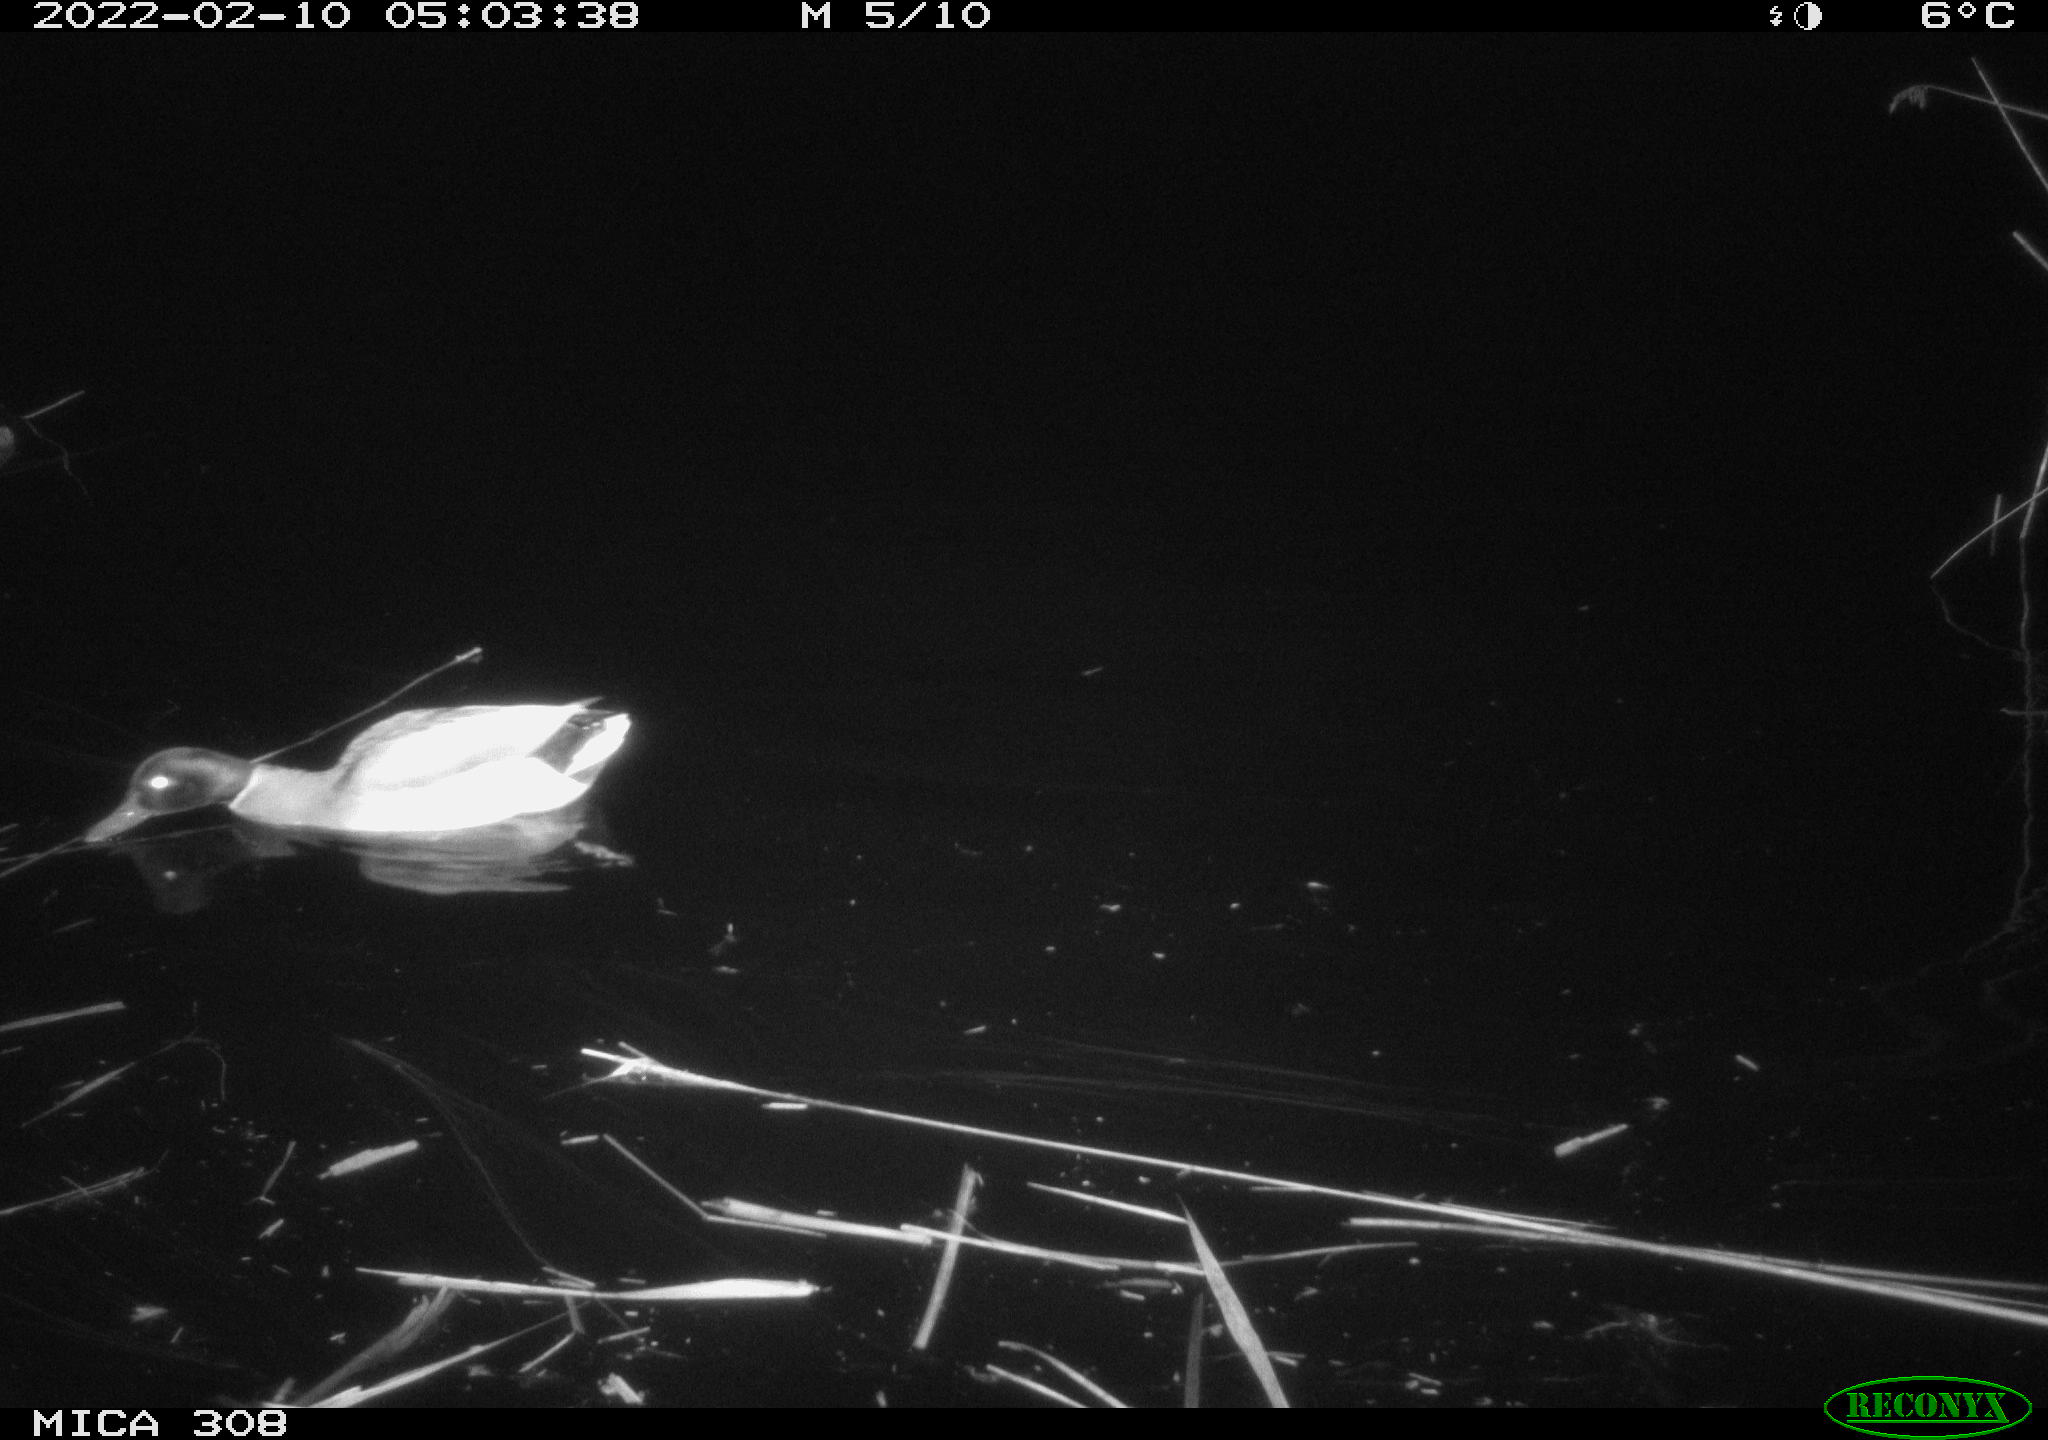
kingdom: Animalia
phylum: Chordata
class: Aves
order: Anseriformes
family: Anatidae
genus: Anas
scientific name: Anas platyrhynchos
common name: Mallard
